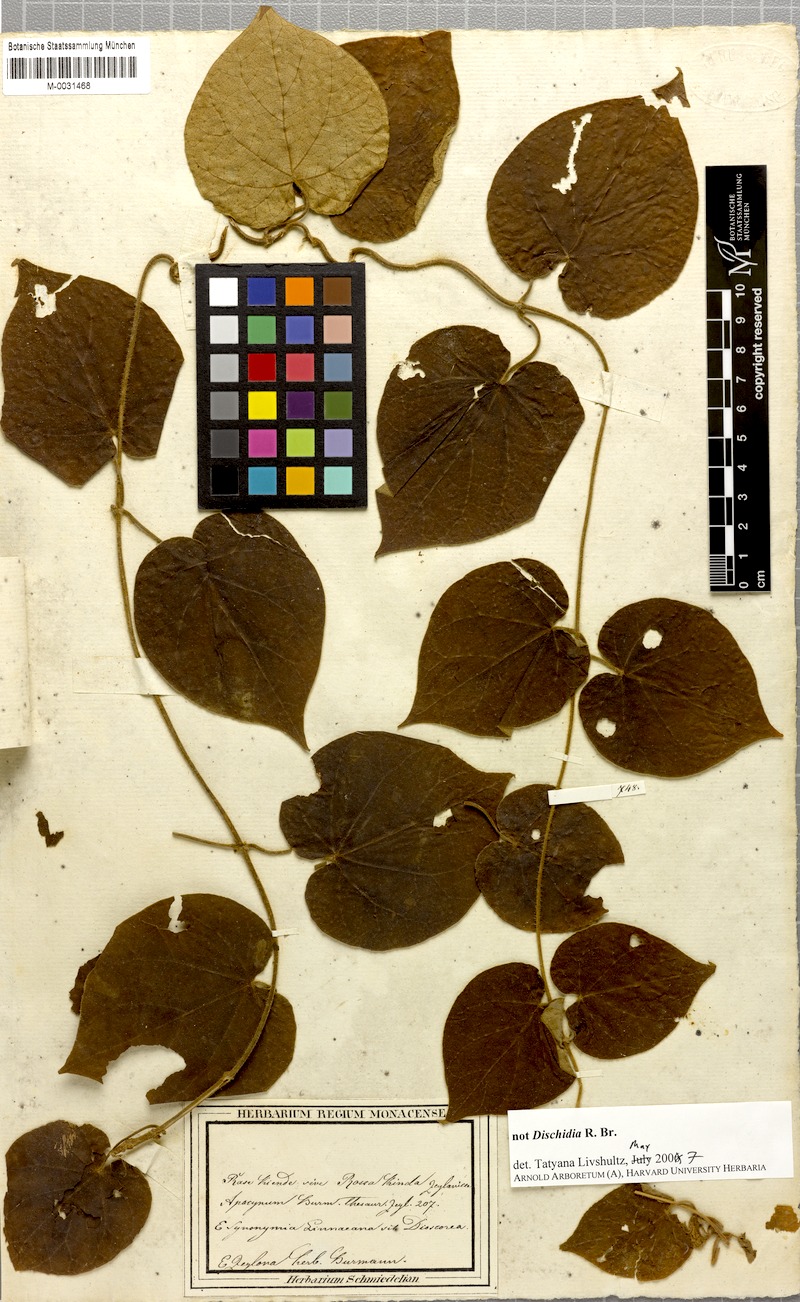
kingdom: Plantae
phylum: Tracheophyta
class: Magnoliopsida
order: Gentianales
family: Apocynaceae
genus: Apocynum
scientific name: Apocynum
